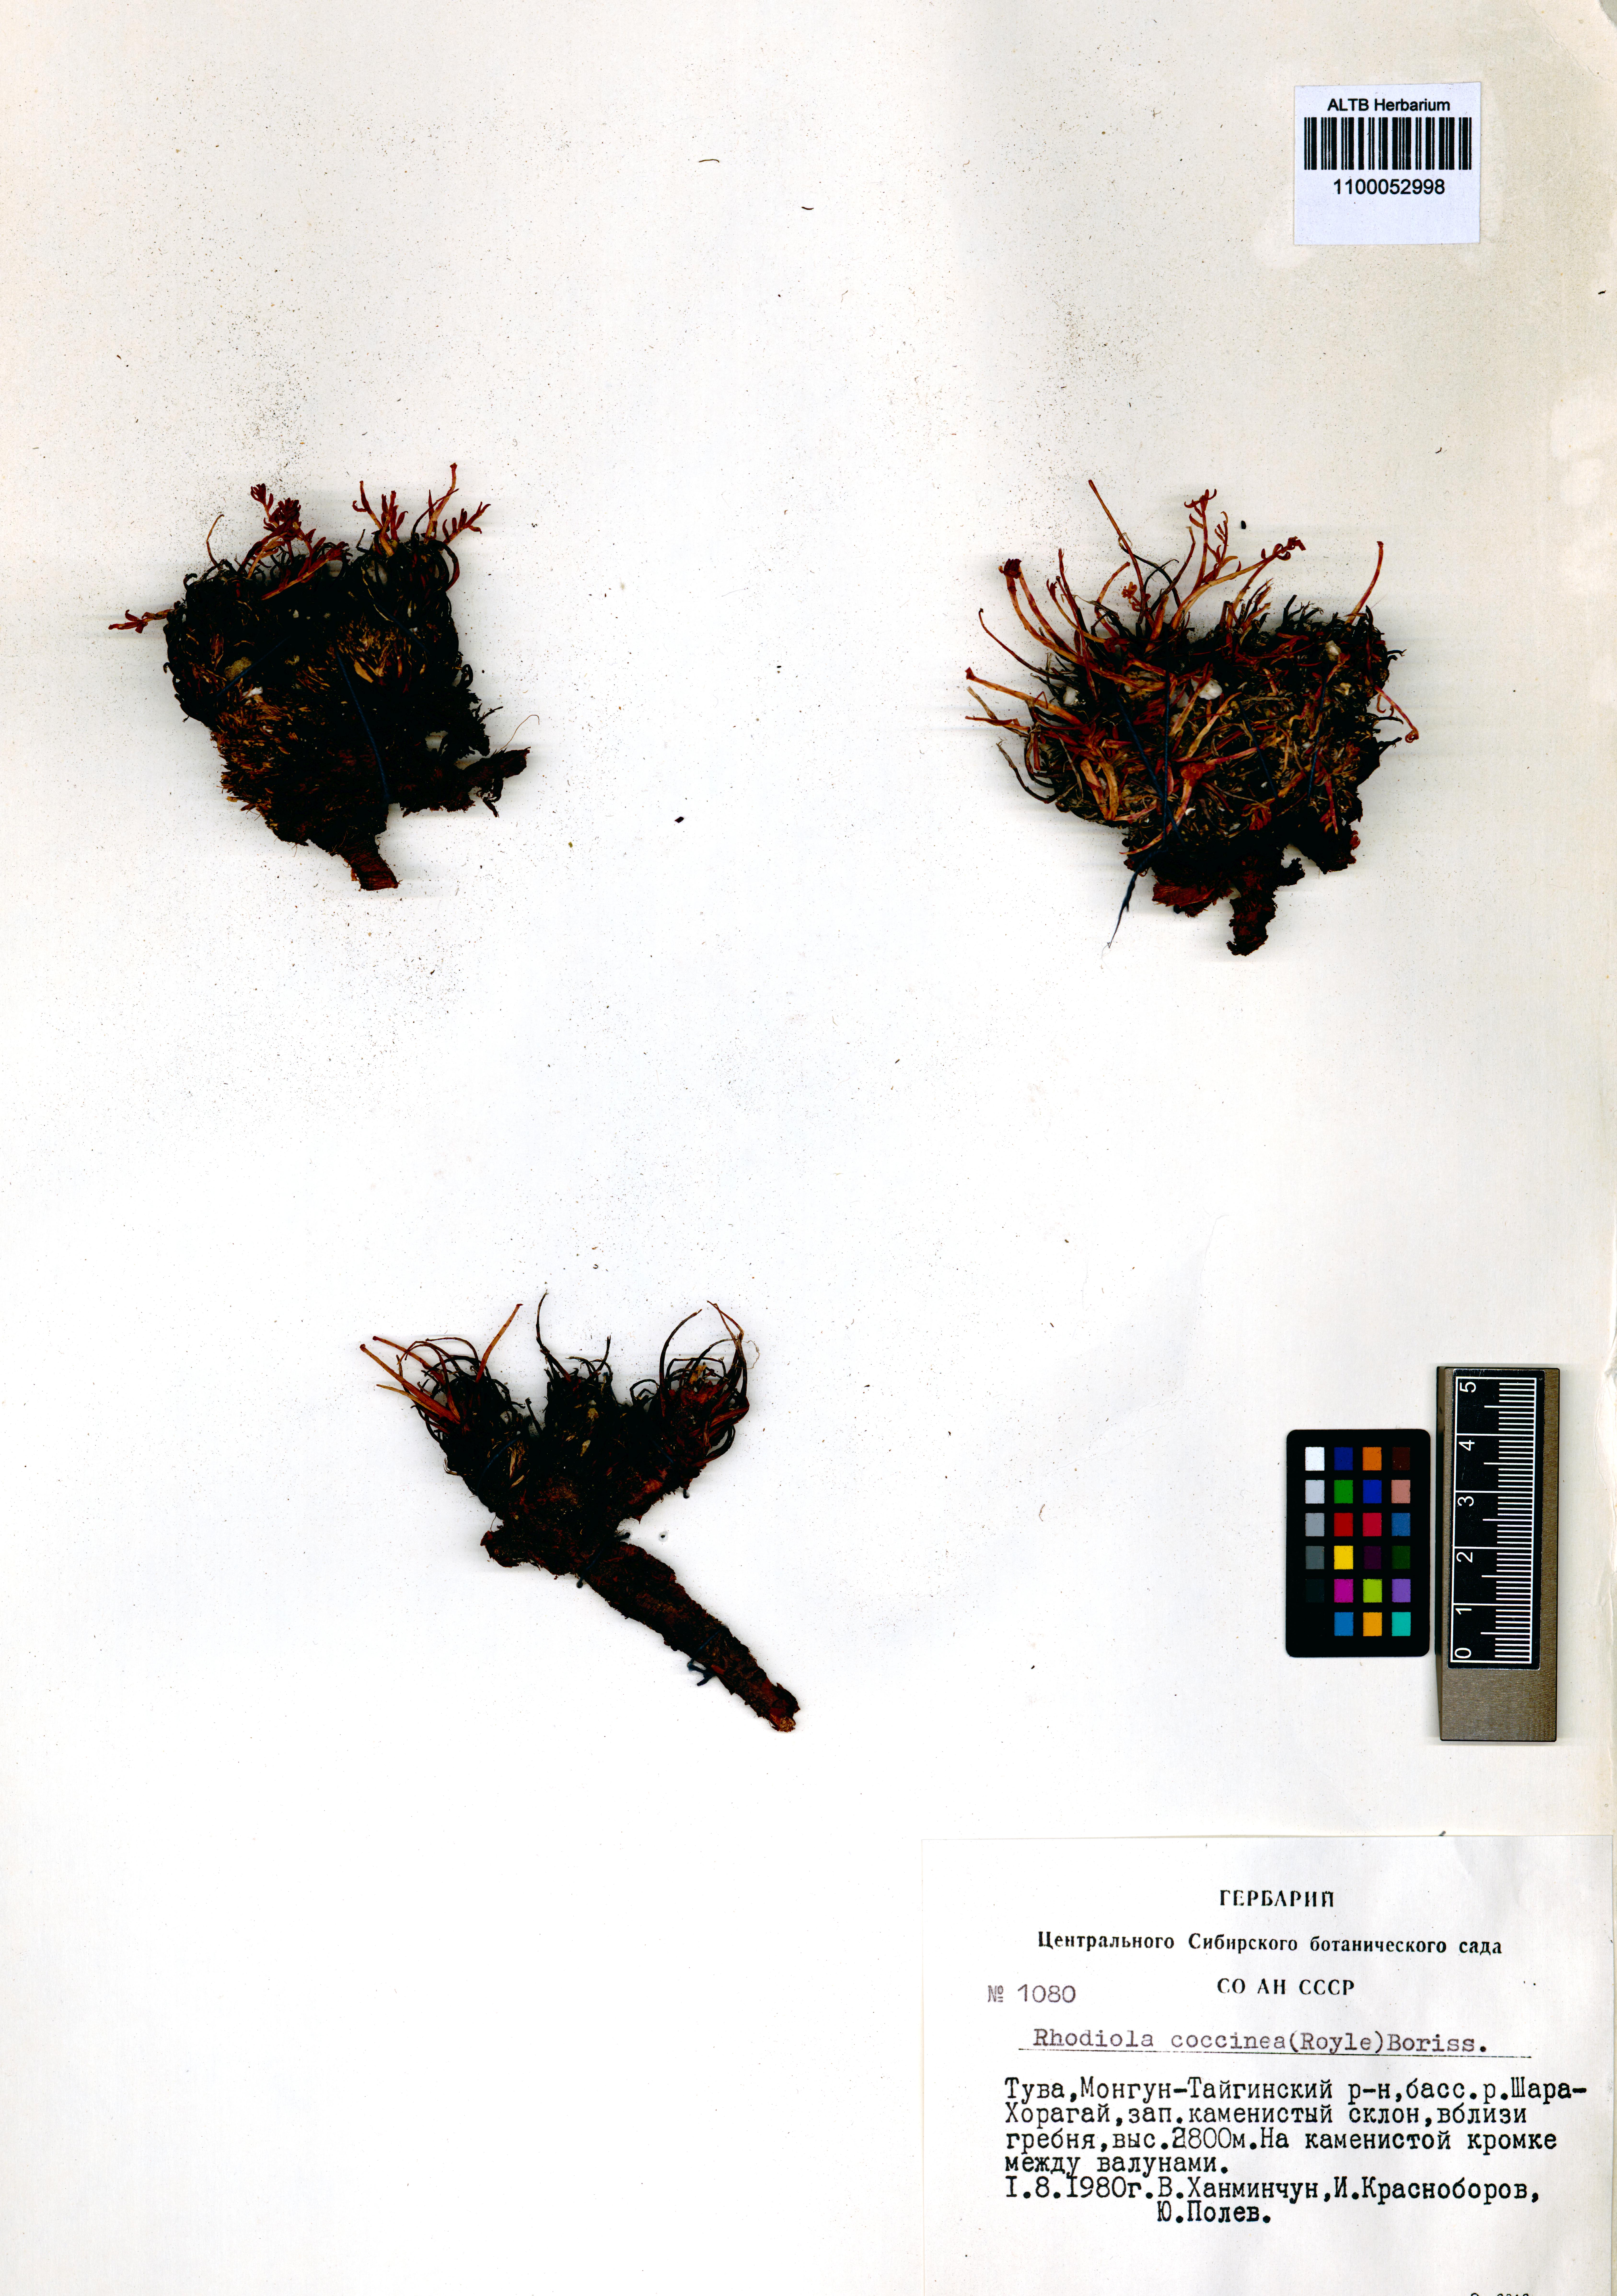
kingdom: Plantae
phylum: Tracheophyta
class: Magnoliopsida
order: Saxifragales
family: Crassulaceae
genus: Rhodiola
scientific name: Rhodiola coccinea
